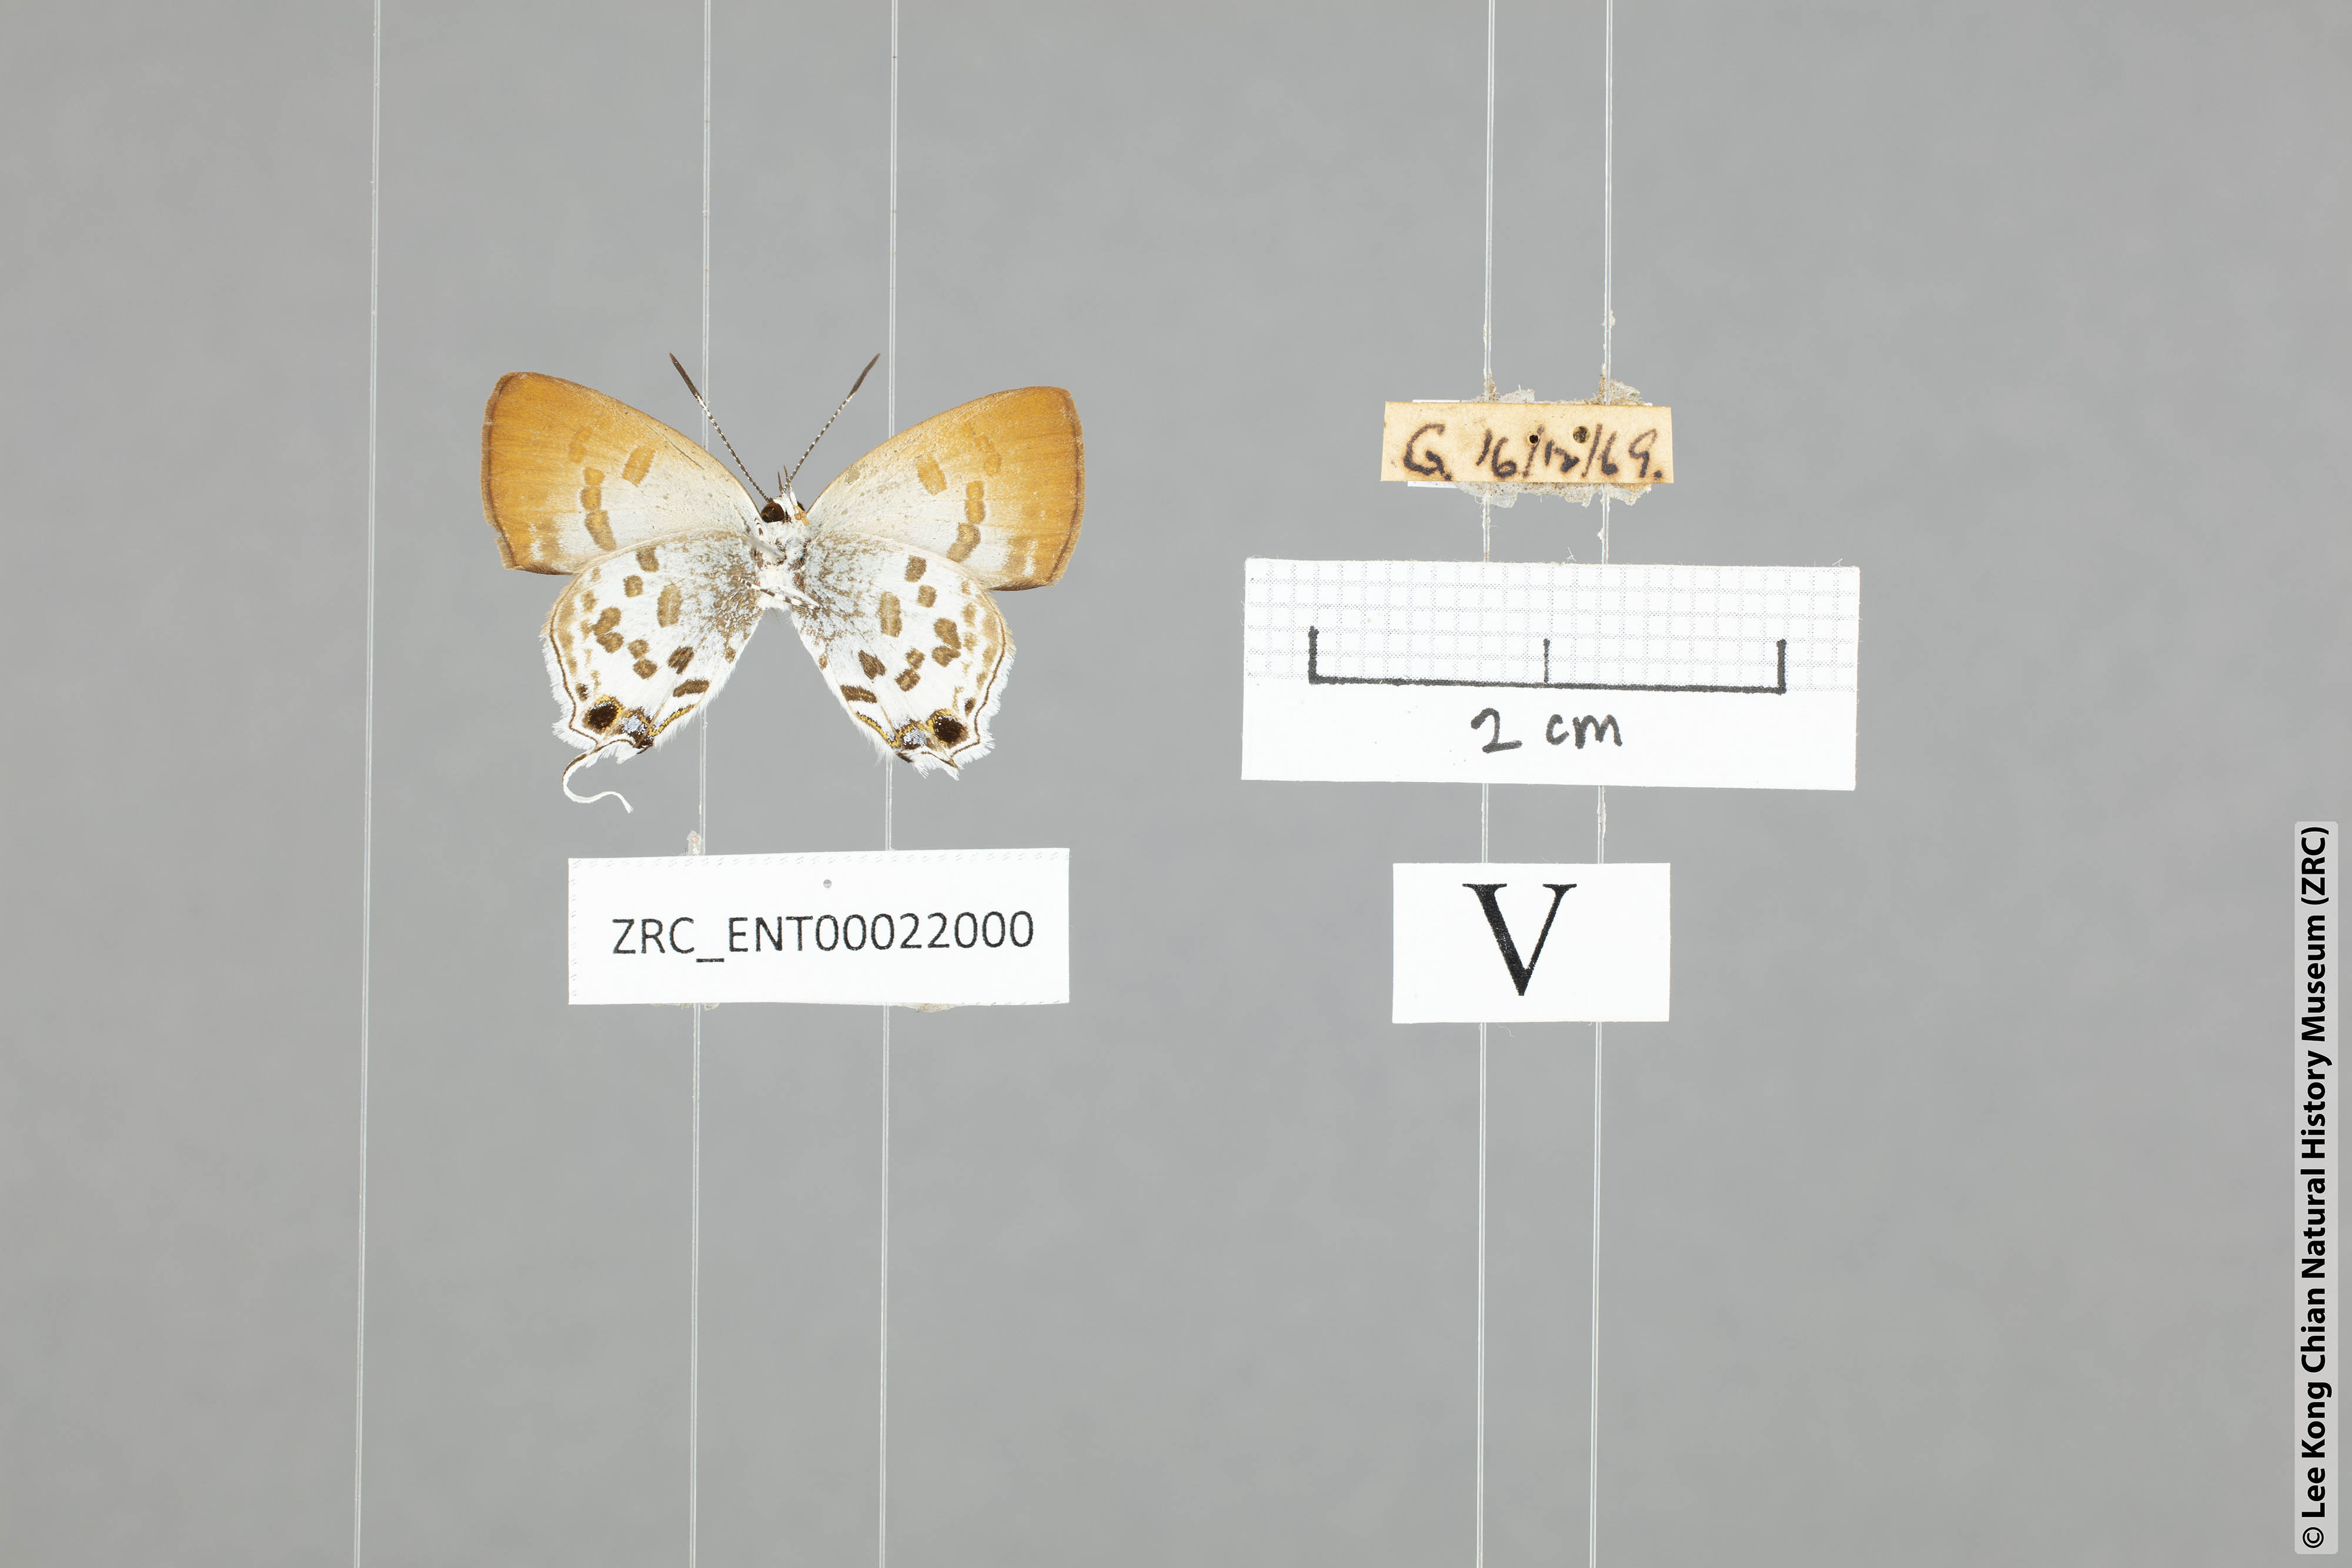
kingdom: Animalia
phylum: Arthropoda
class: Insecta
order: Lepidoptera
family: Lycaenidae
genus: Sinthusa
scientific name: Sinthusa malika
